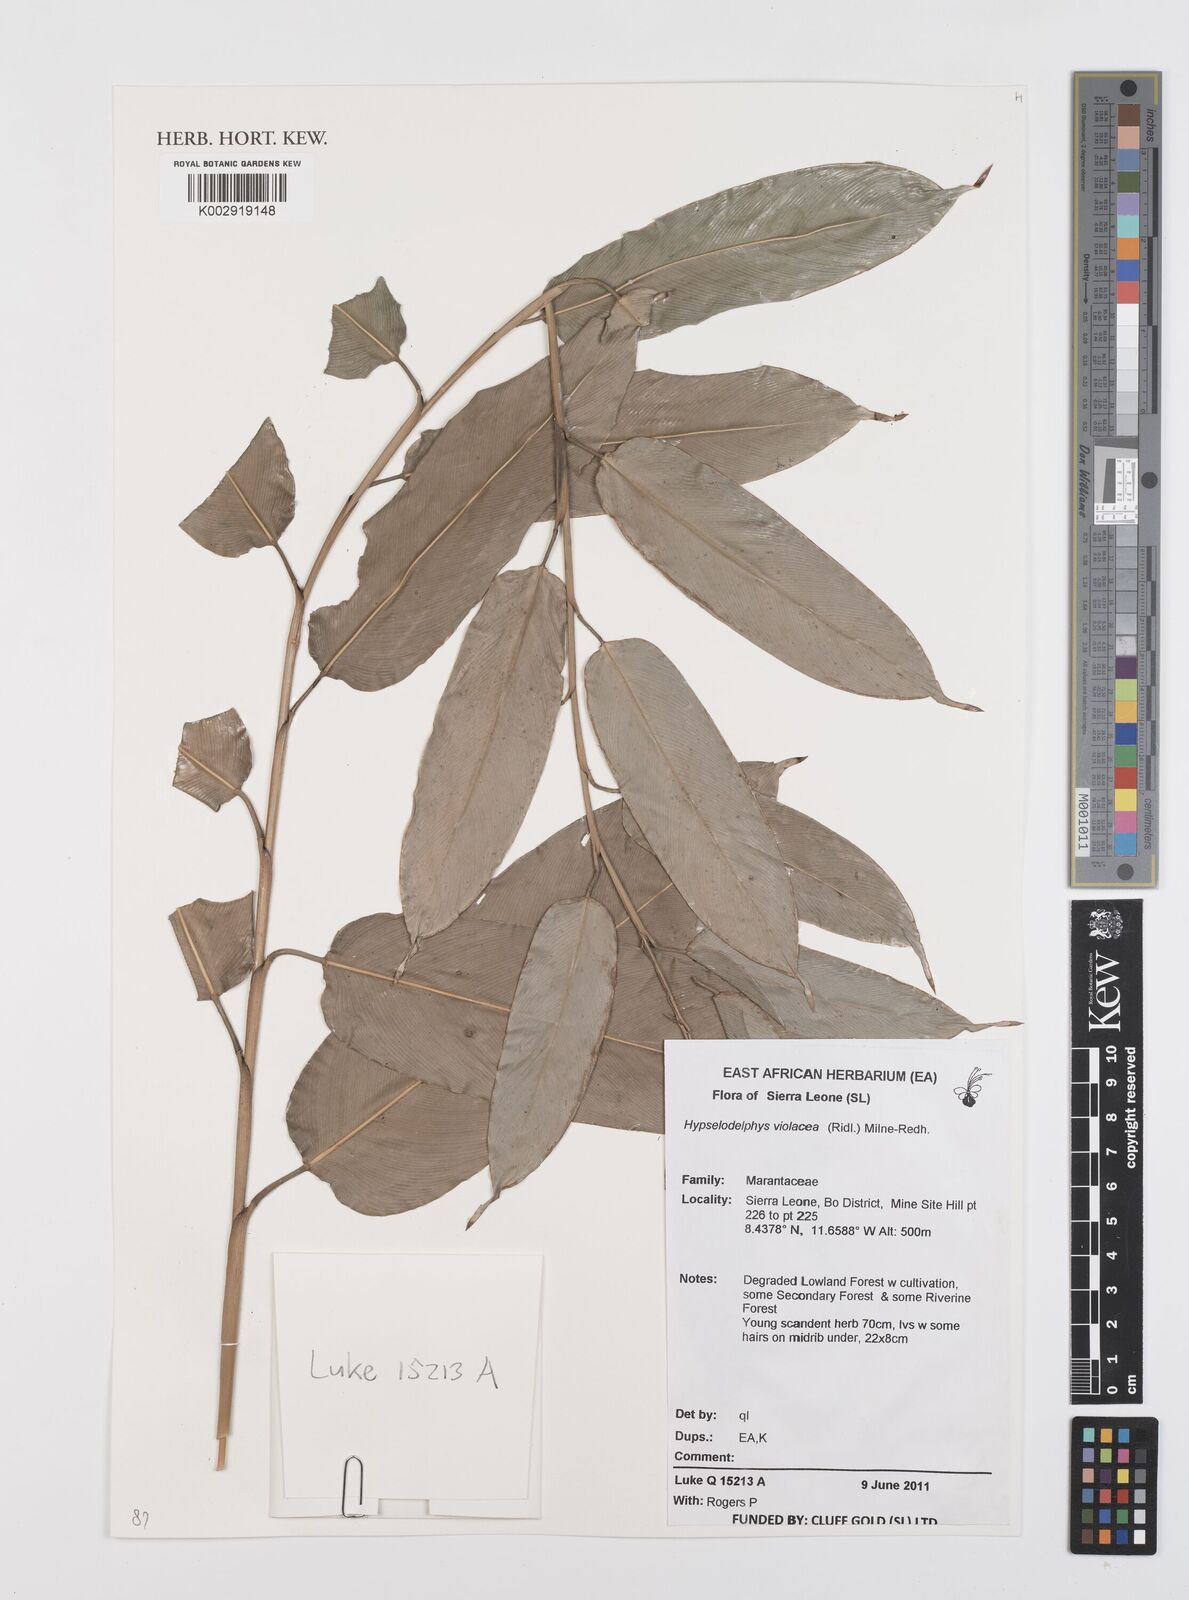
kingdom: Plantae
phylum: Tracheophyta
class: Liliopsida
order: Zingiberales
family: Marantaceae
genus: Hypselodelphys
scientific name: Hypselodelphys violacea
